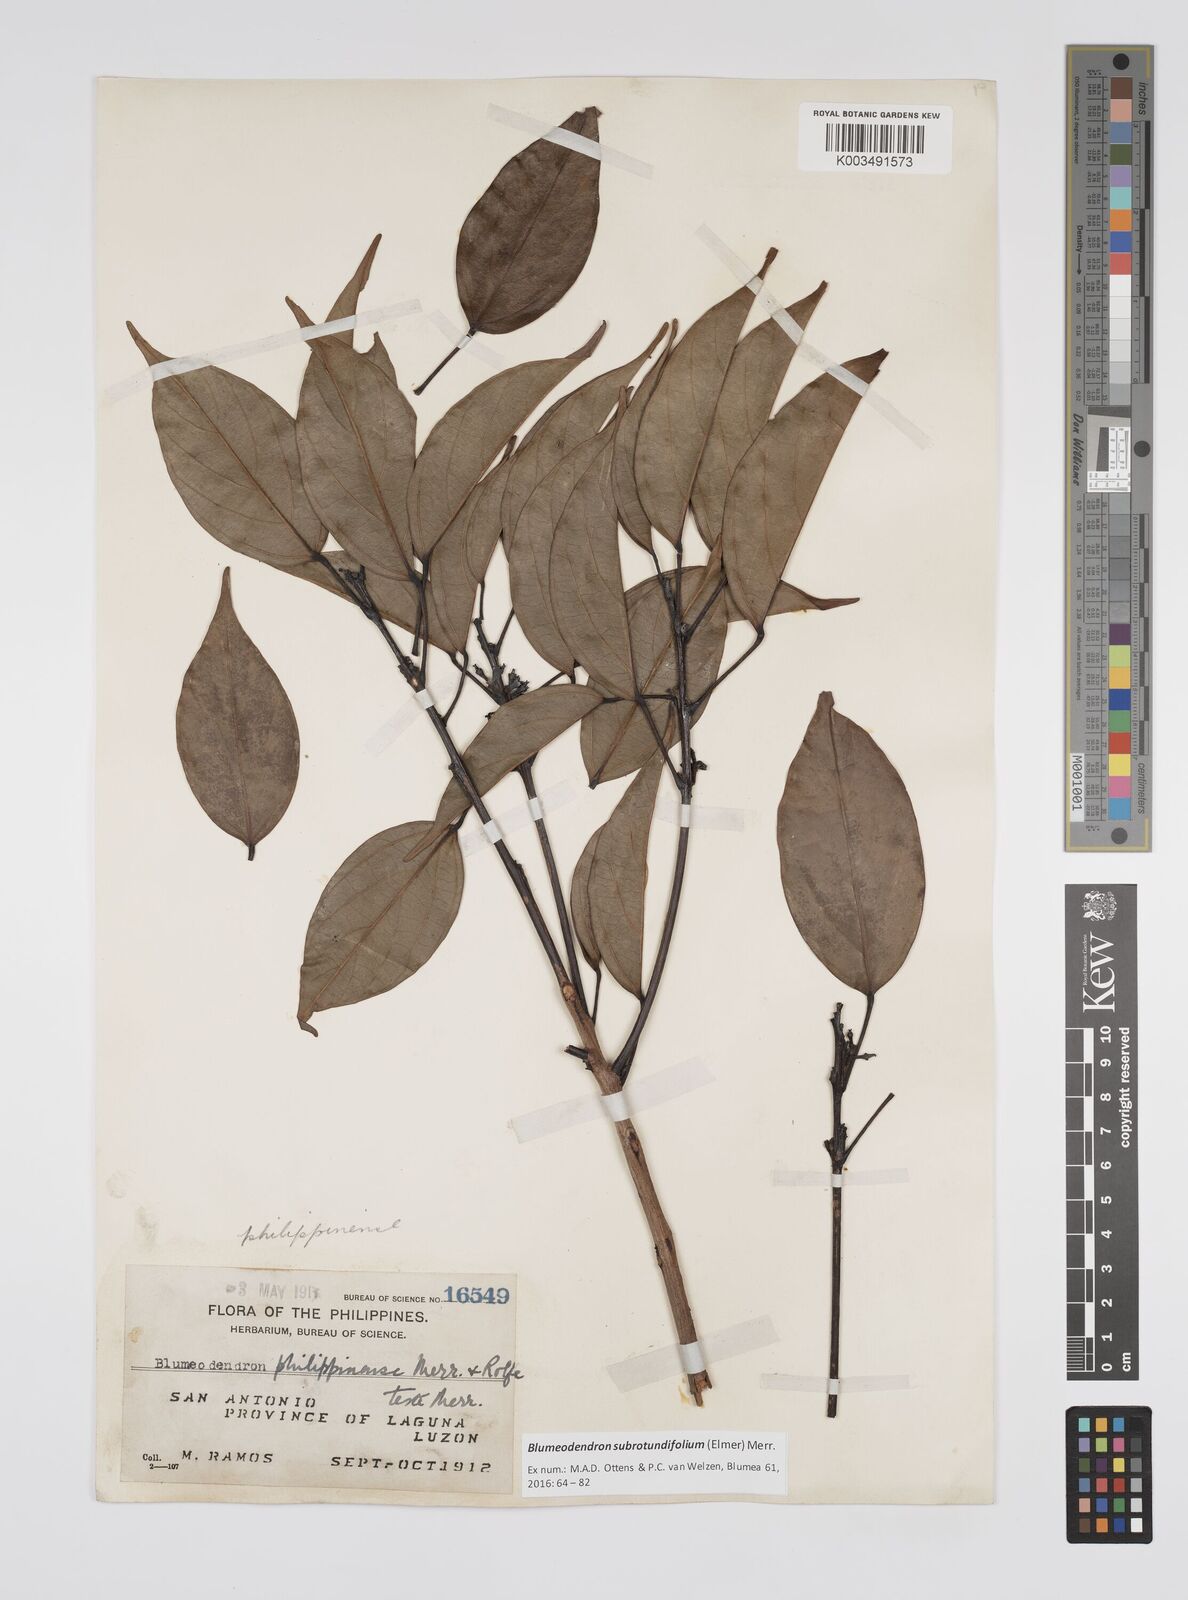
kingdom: Plantae
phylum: Tracheophyta
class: Magnoliopsida
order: Malpighiales
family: Euphorbiaceae
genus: Blumeodendron
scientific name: Blumeodendron subrotundifolium
